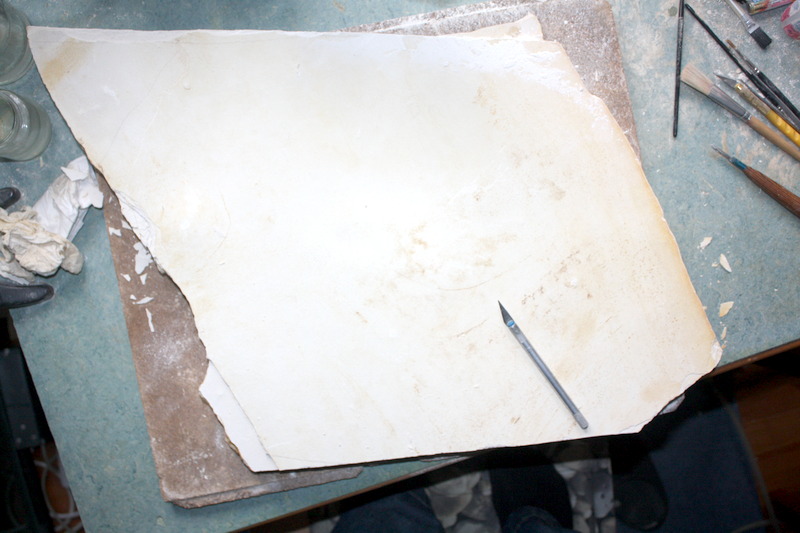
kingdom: Animalia
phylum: Chordata
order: Amiiformes
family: Caturidae
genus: Caturus
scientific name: Caturus
